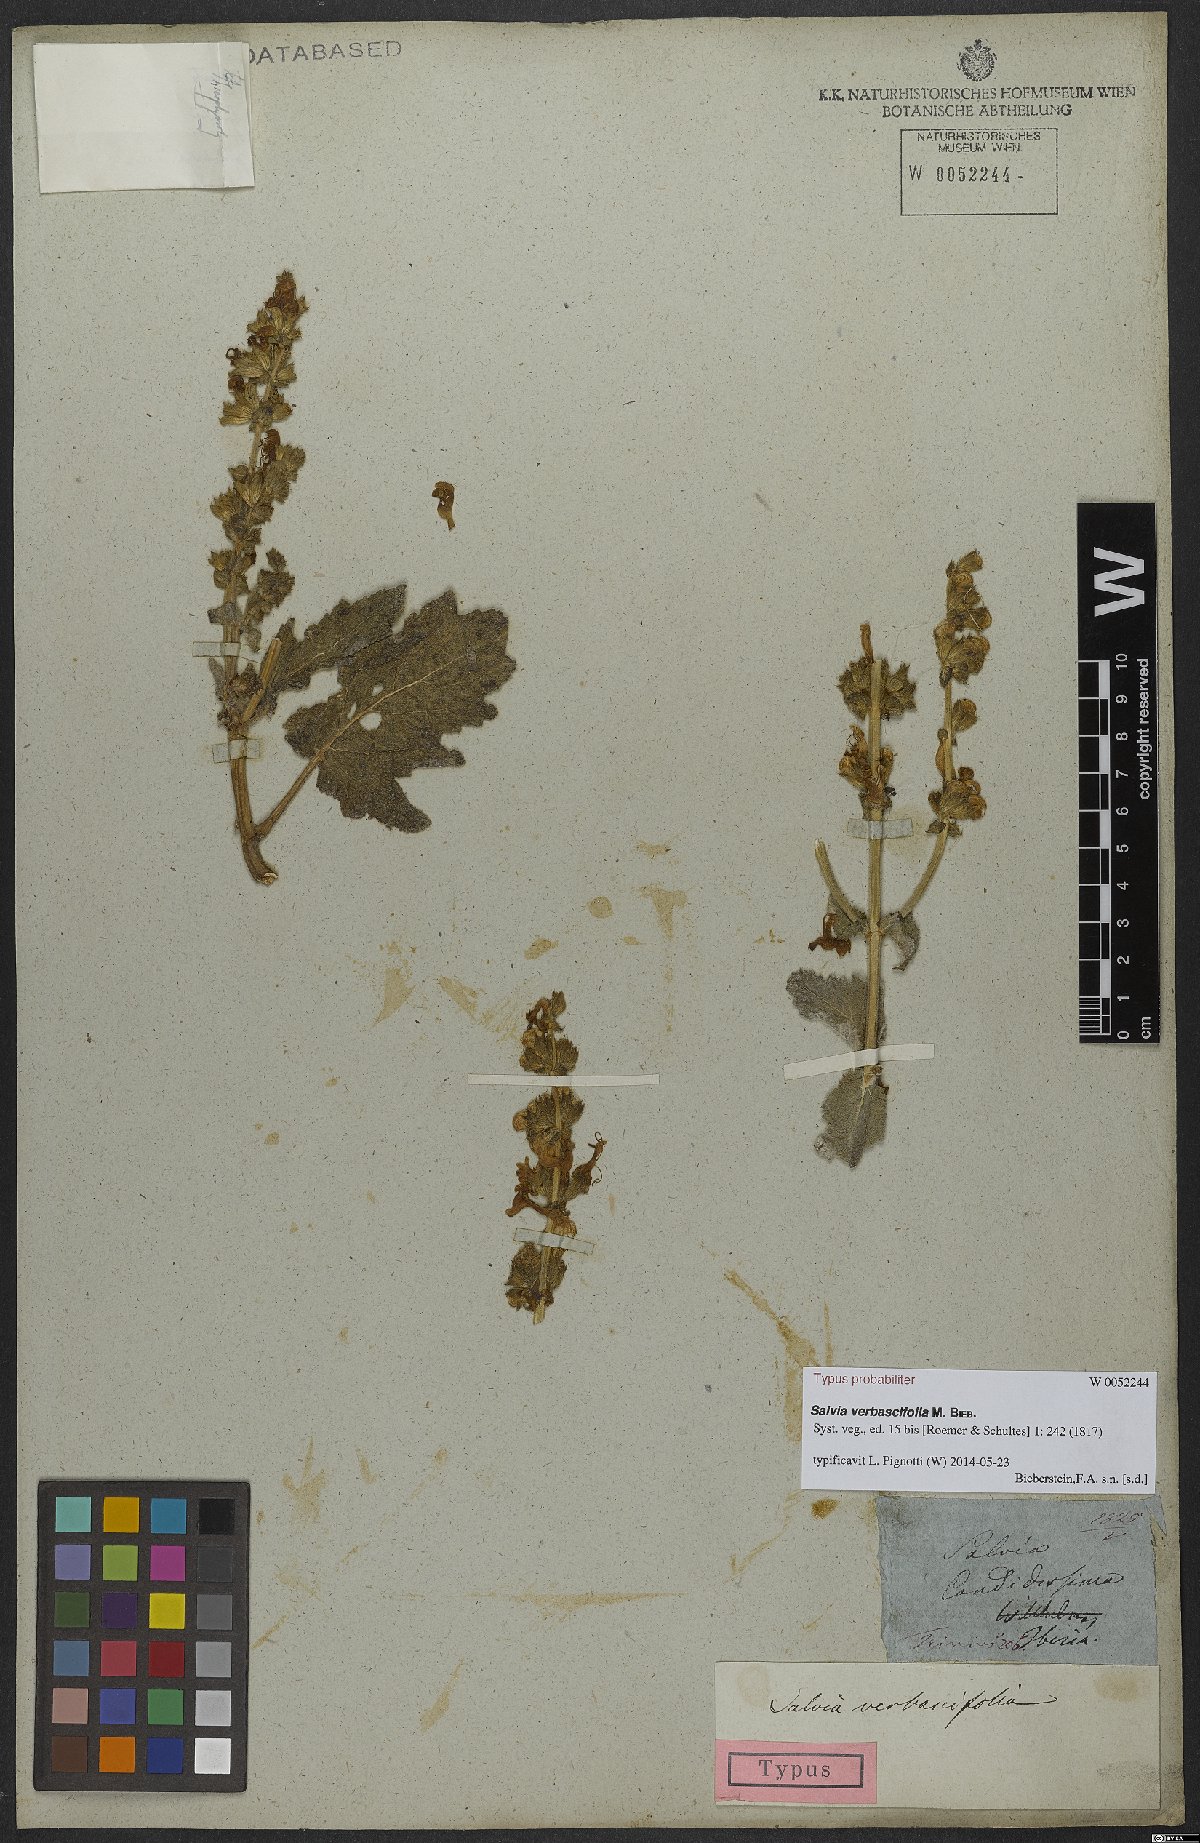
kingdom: Plantae
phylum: Tracheophyta
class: Magnoliopsida
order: Lamiales
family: Lamiaceae
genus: Salvia
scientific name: Salvia verbascifolia
